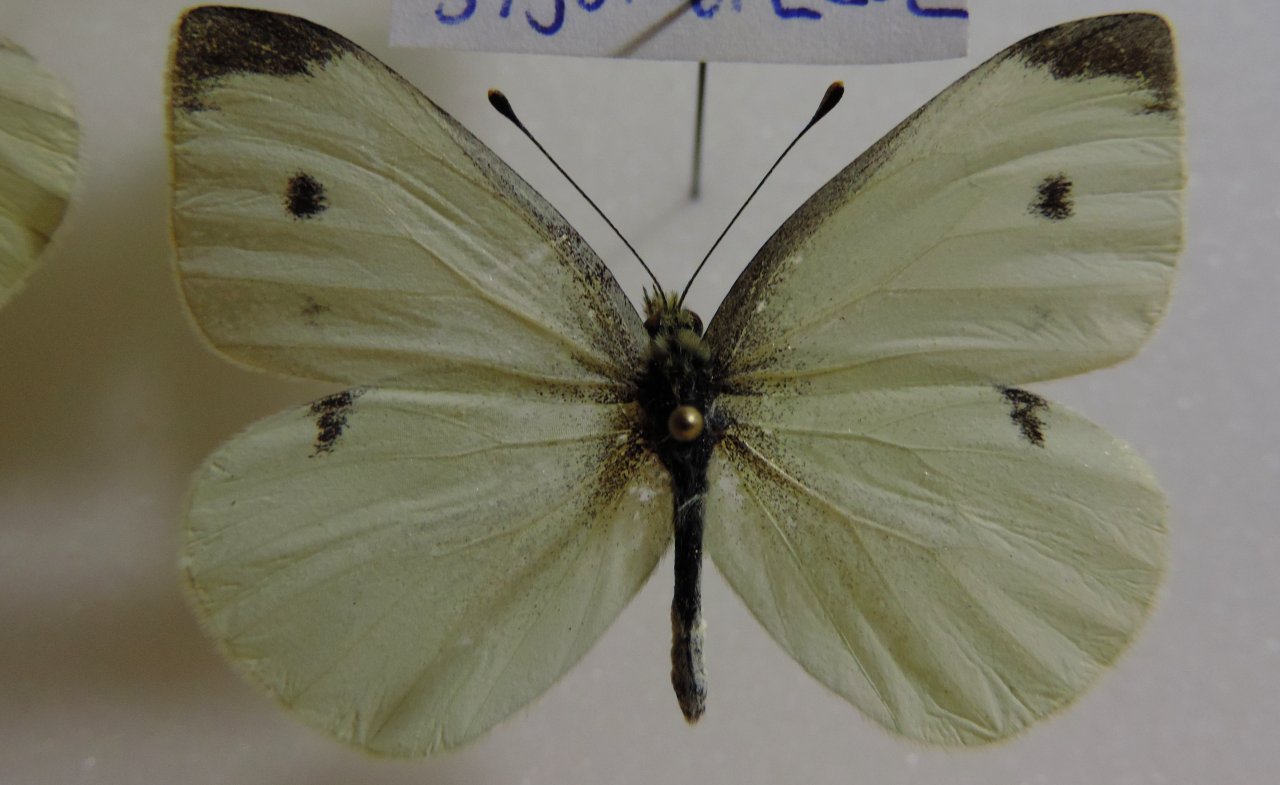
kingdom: Animalia
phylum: Arthropoda
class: Insecta
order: Lepidoptera
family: Pieridae
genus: Pieris
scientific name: Pieris rapae
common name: Cabbage White
